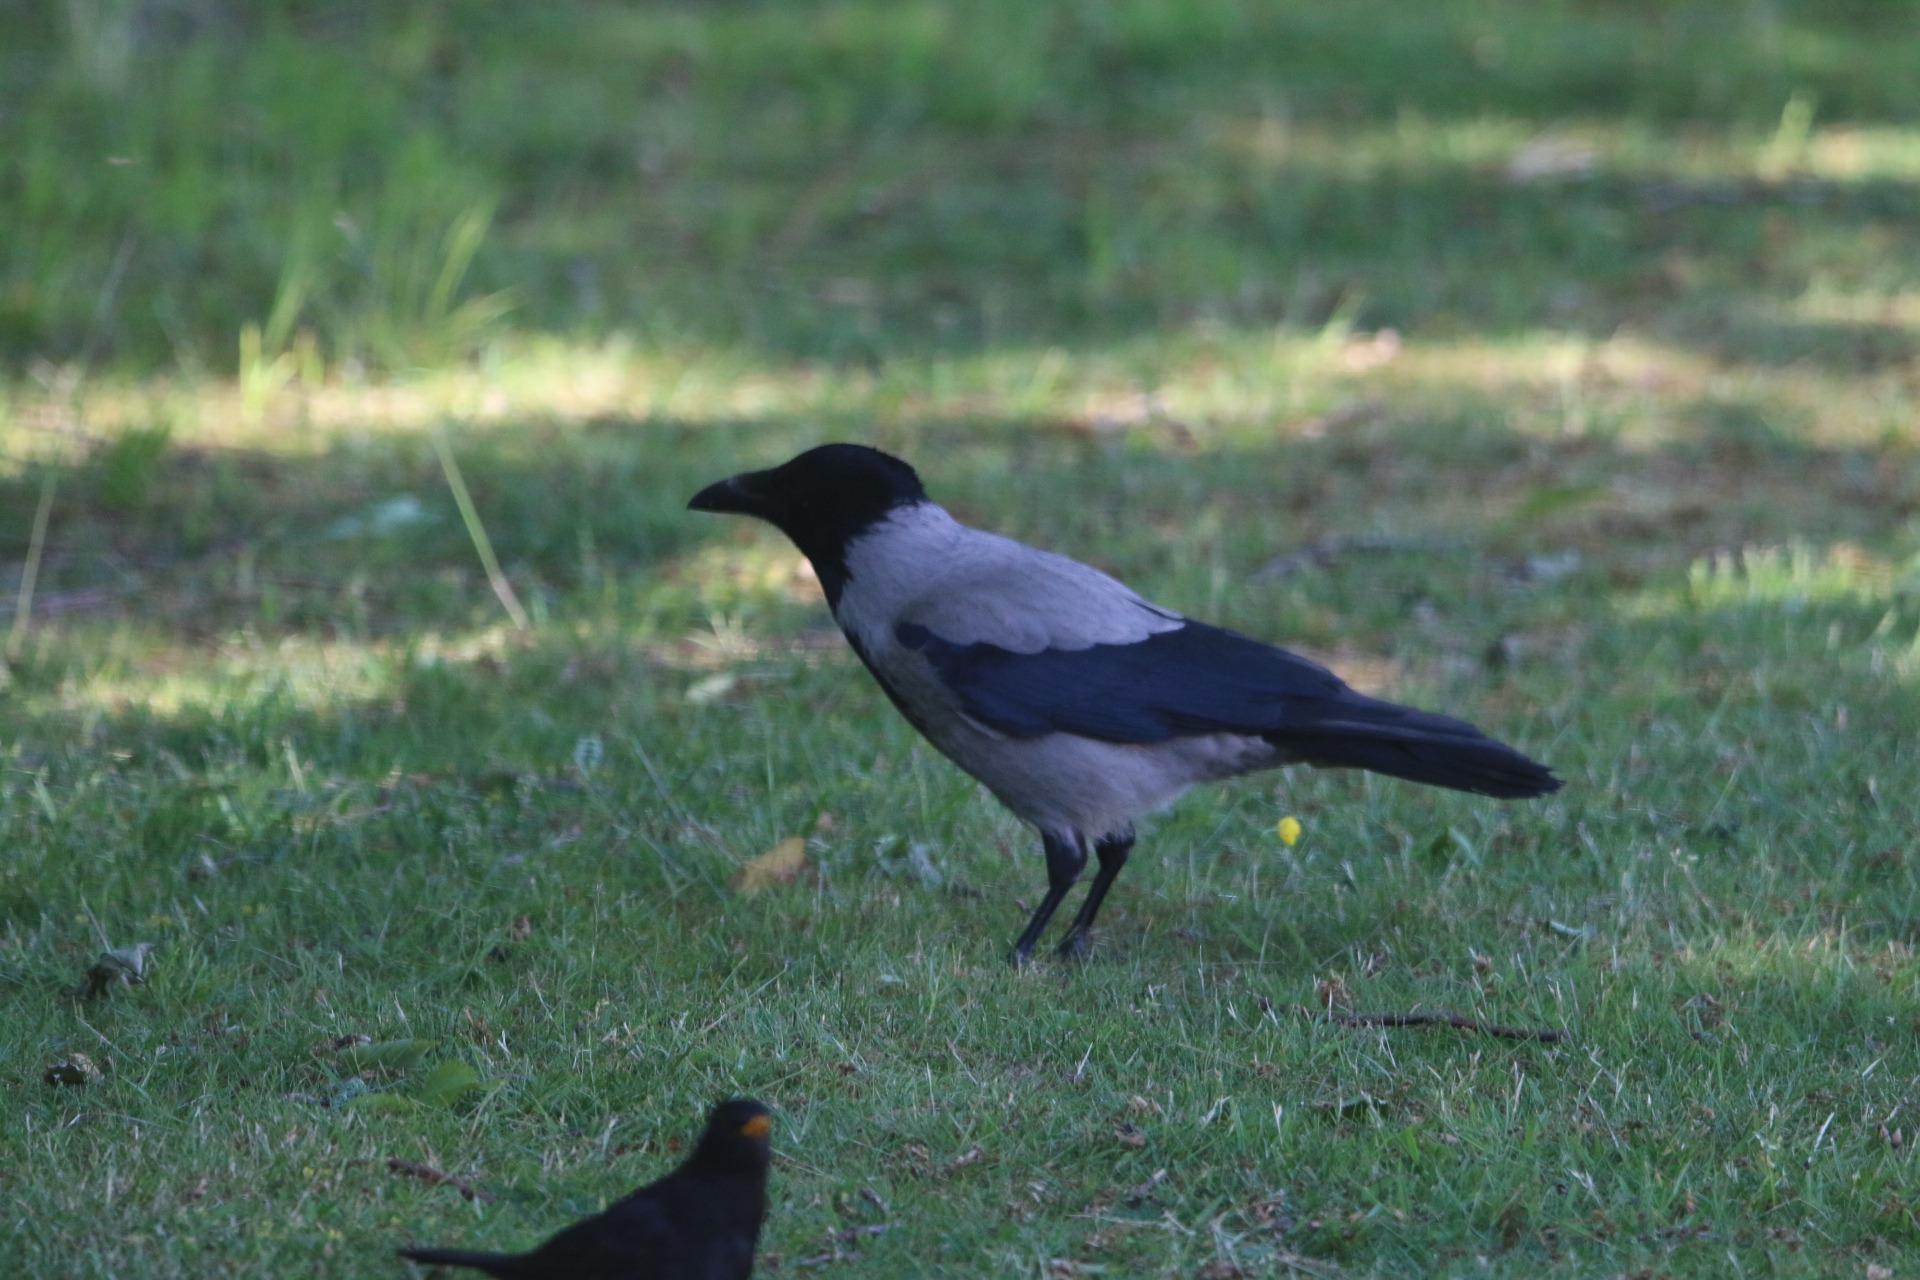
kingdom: Animalia
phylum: Chordata
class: Aves
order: Passeriformes
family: Corvidae
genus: Corvus
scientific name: Corvus cornix
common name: Gråkrage
